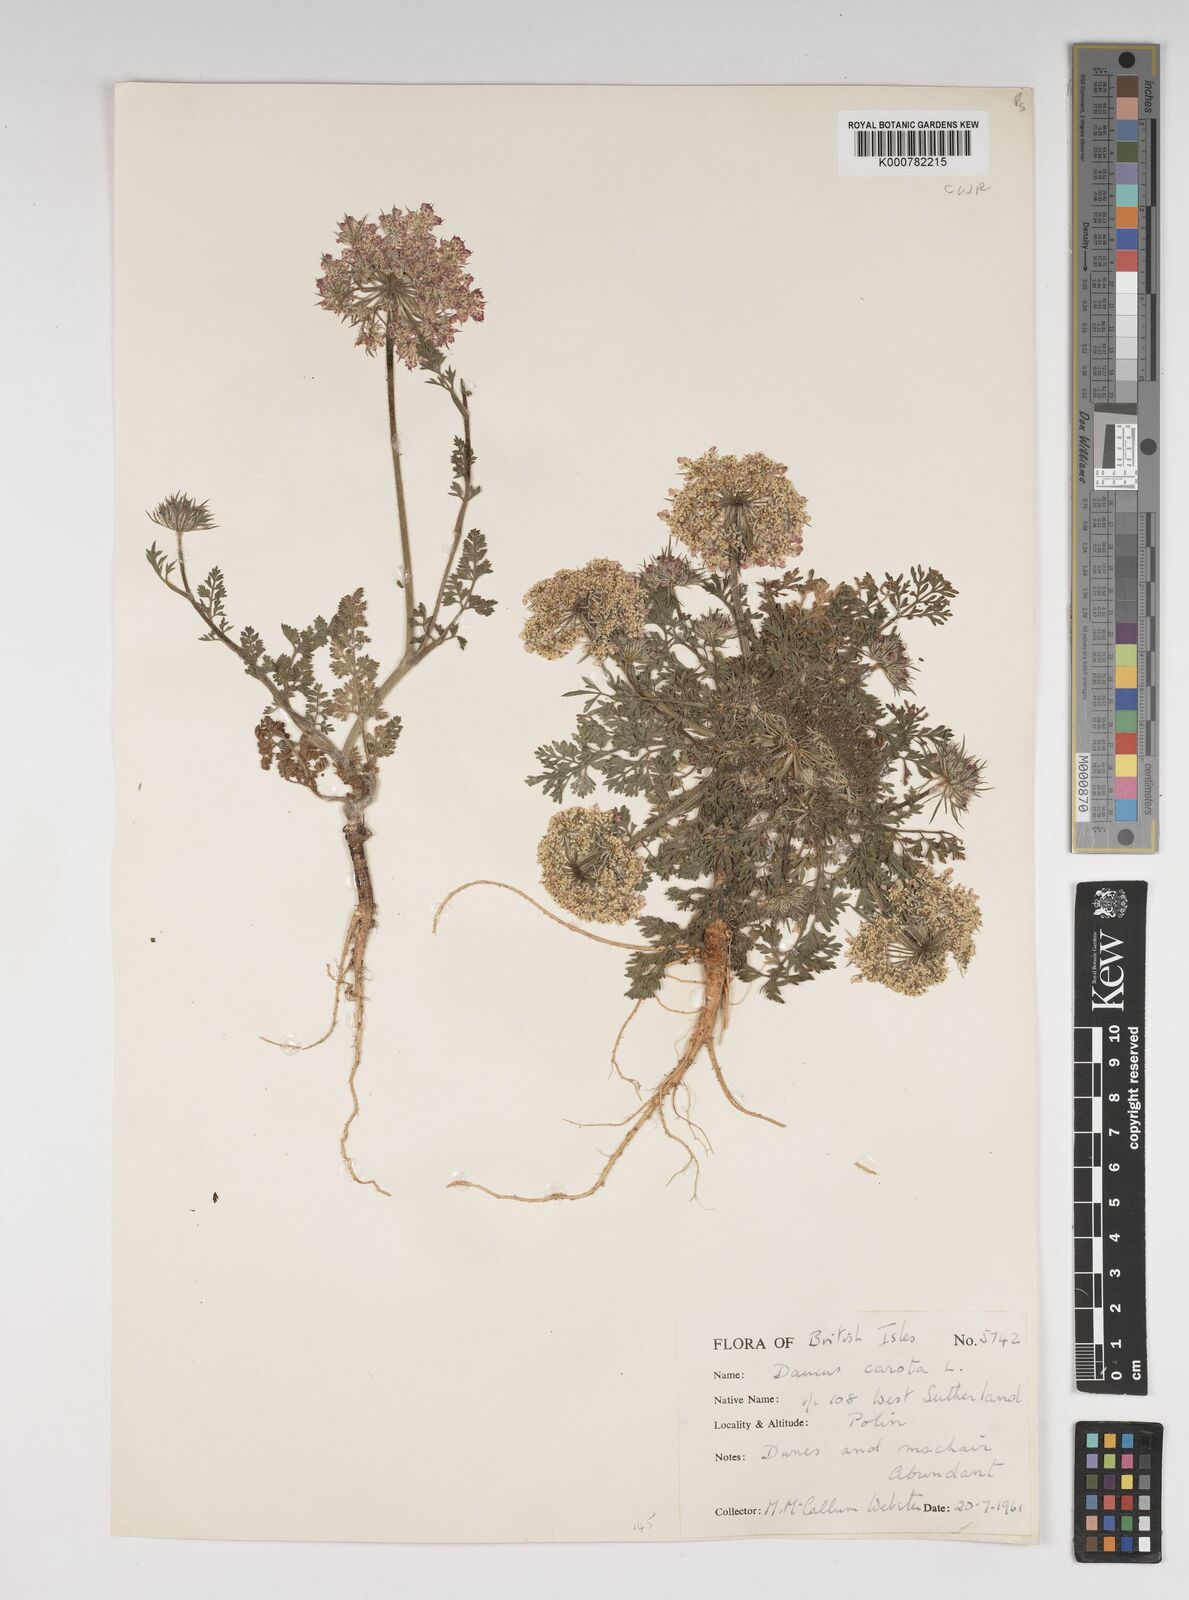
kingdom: Plantae
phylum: Tracheophyta
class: Magnoliopsida
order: Apiales
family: Apiaceae
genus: Daucus
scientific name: Daucus carota
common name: Wild carrot
